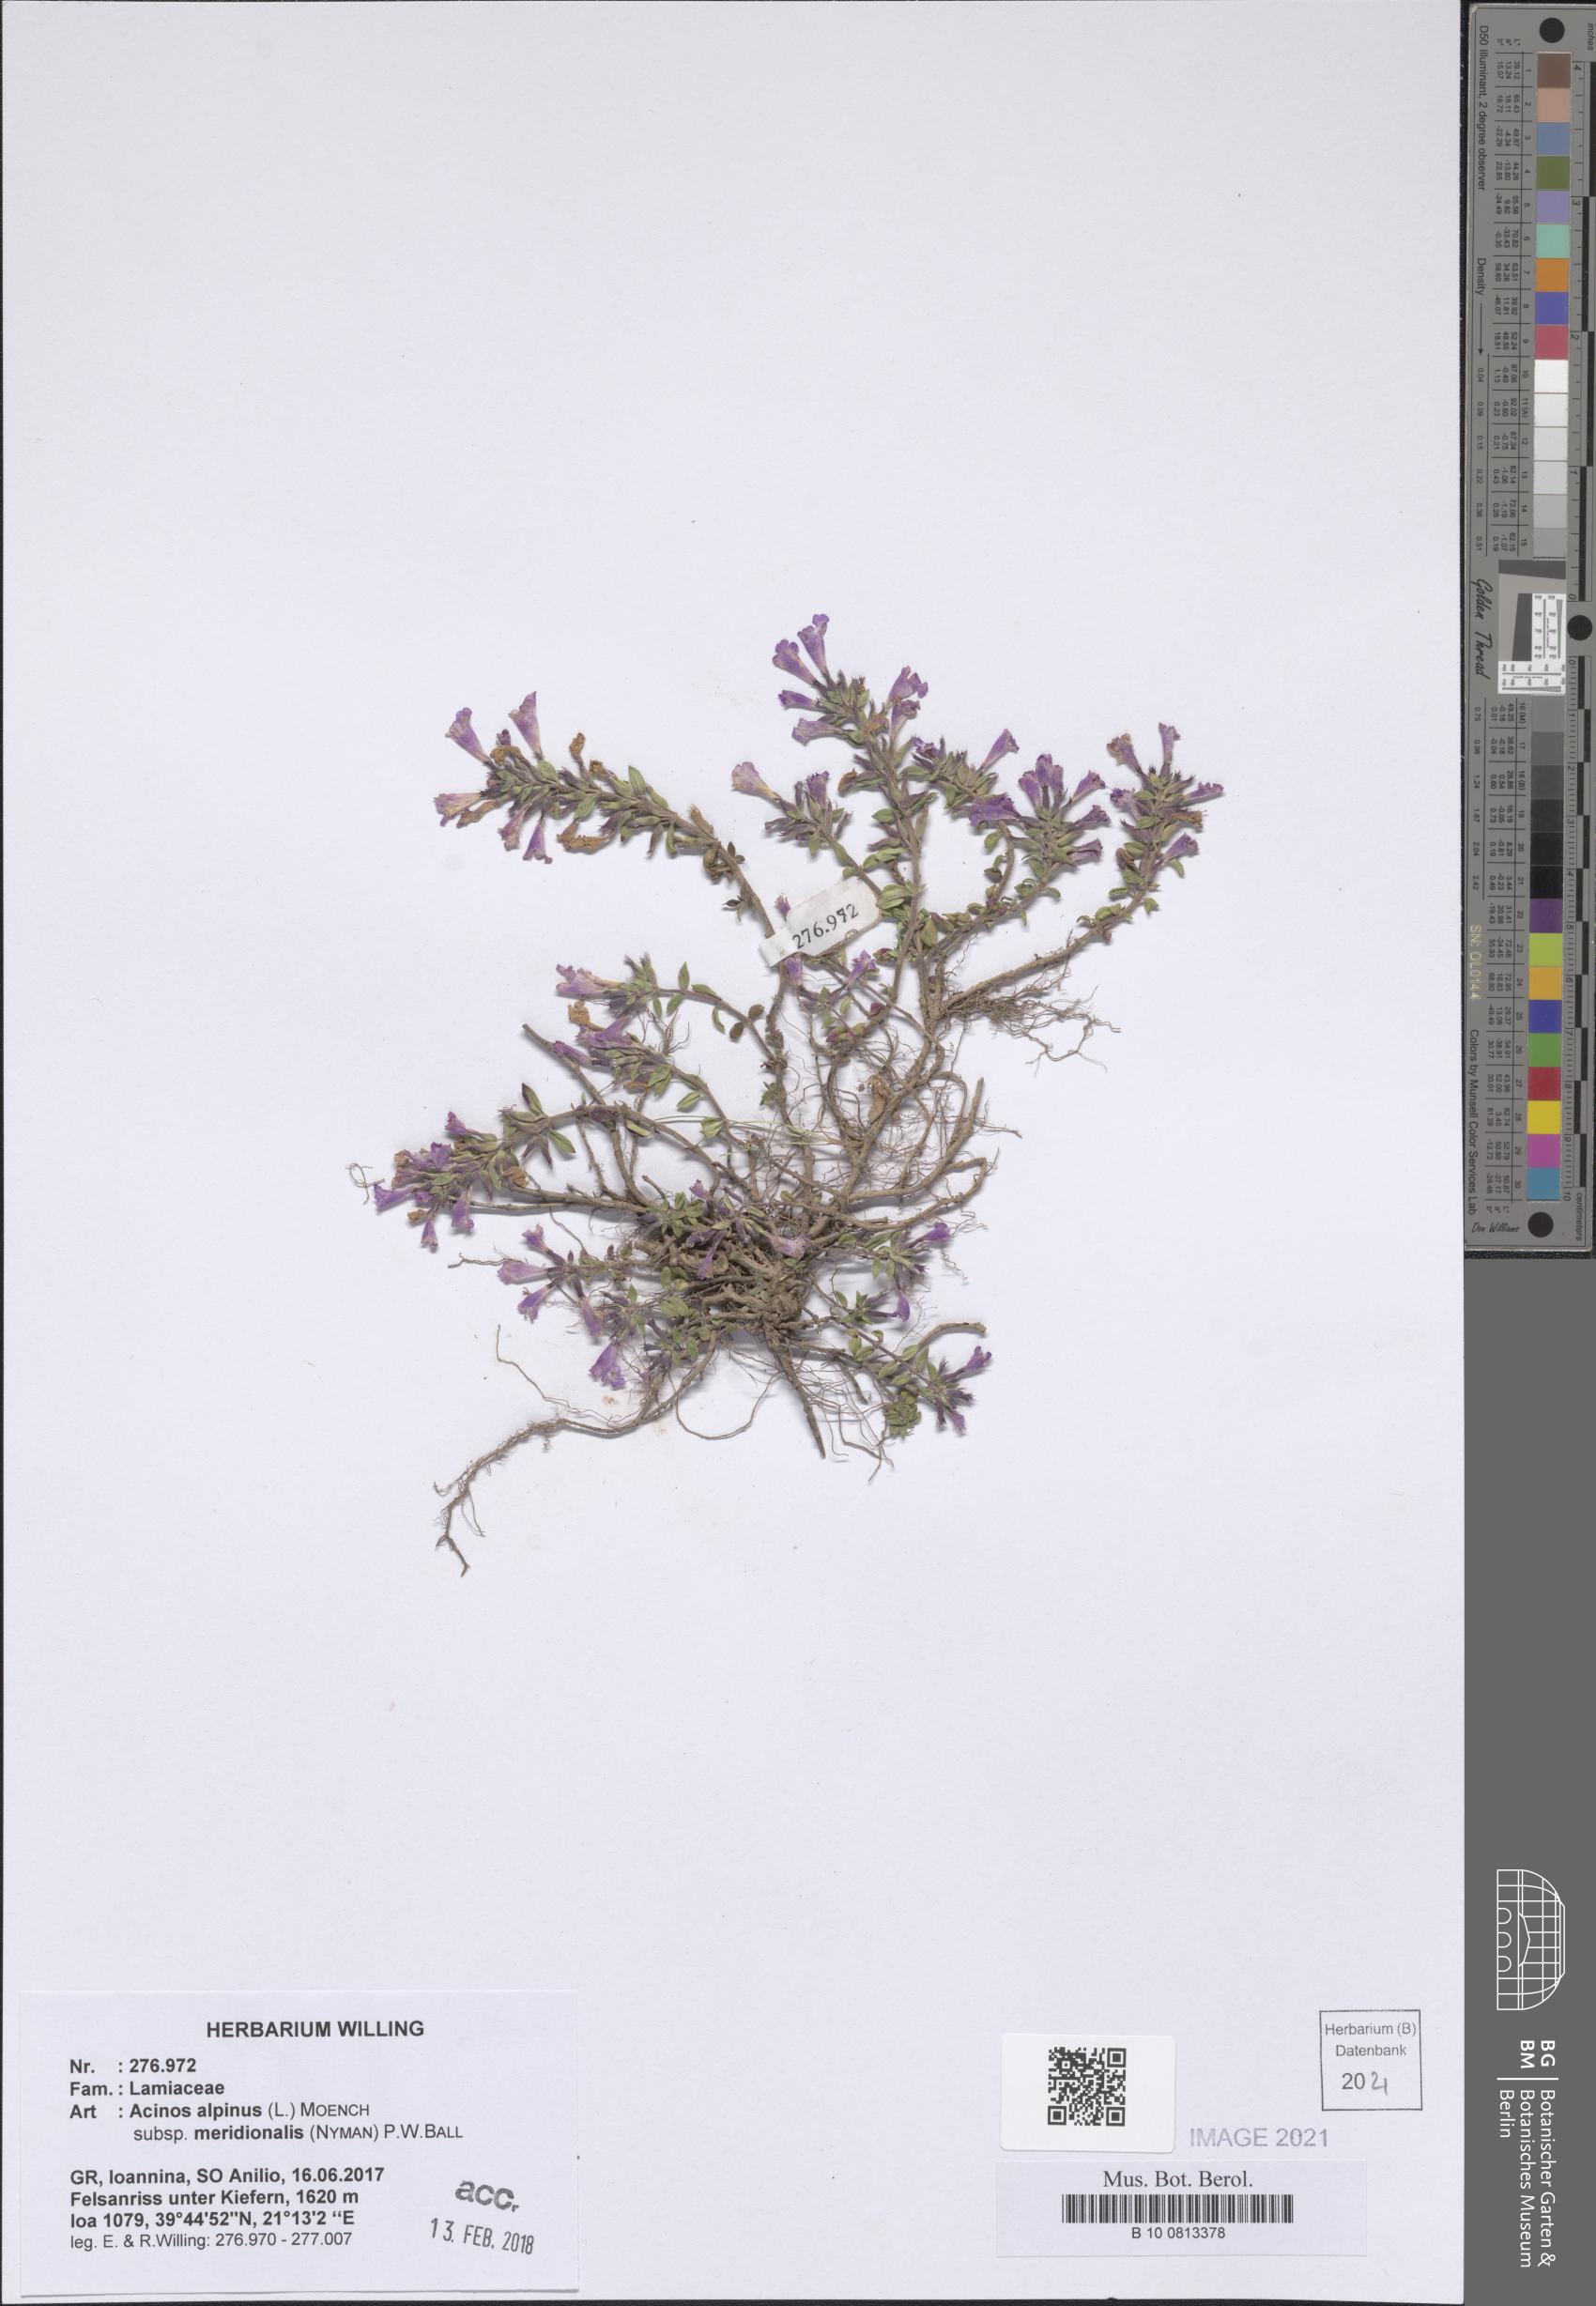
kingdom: Plantae
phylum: Tracheophyta
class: Magnoliopsida
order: Lamiales
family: Lamiaceae
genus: Clinopodium
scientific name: Clinopodium alpinum
